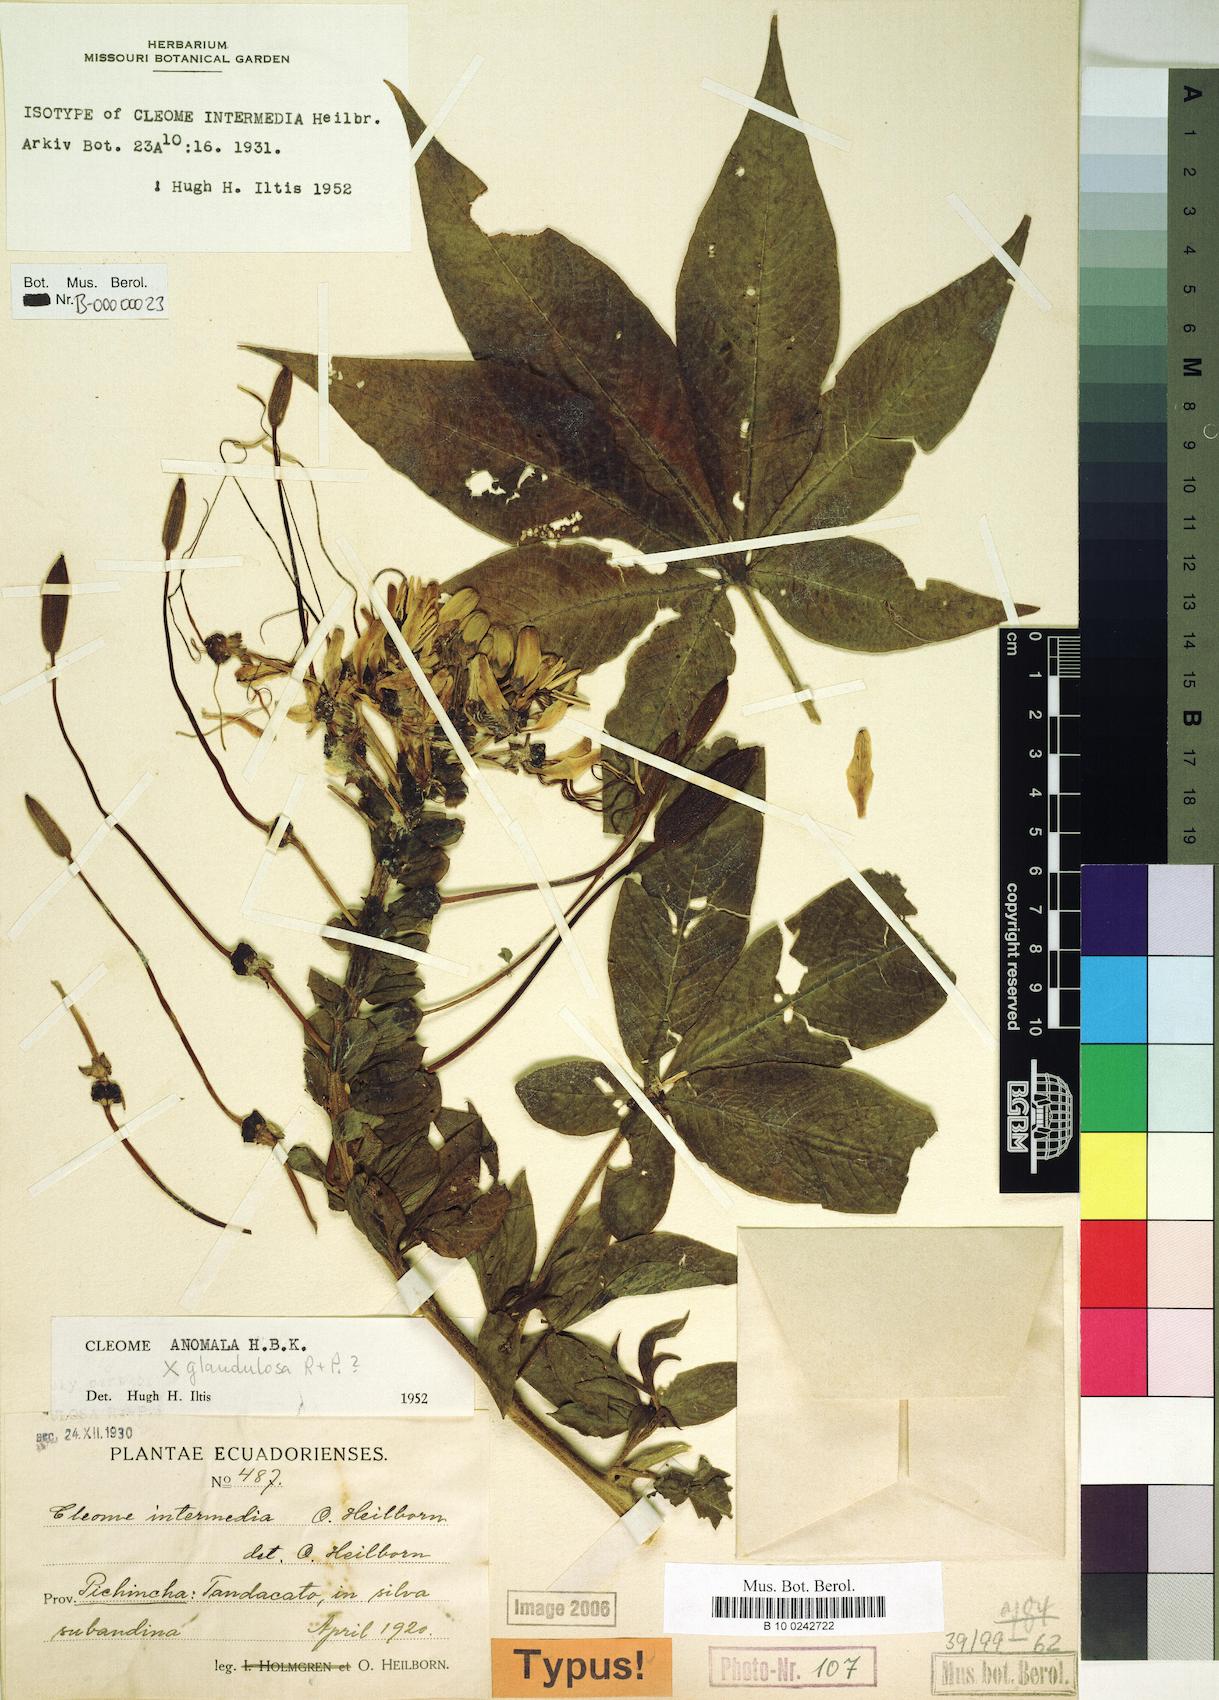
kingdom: Plantae
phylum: Tracheophyta
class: Magnoliopsida
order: Brassicales
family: Cleomaceae
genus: Andinocleome
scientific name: Andinocleome anomala
